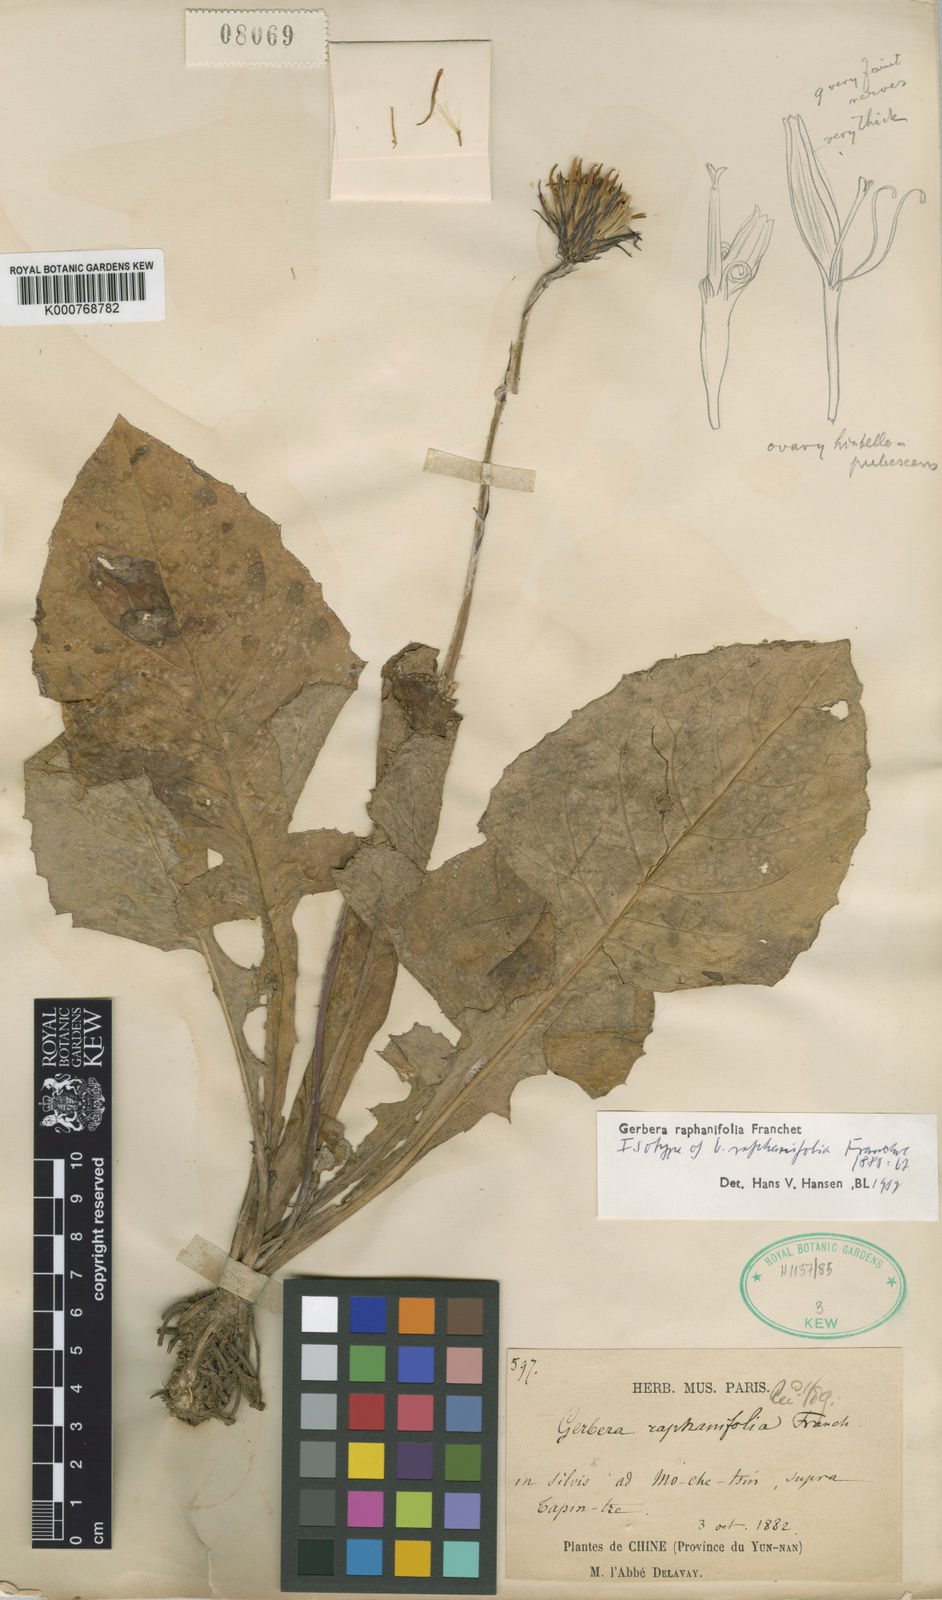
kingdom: Plantae
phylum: Tracheophyta
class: Magnoliopsida
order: Asterales
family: Asteraceae
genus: Oreoseris
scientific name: Oreoseris raphanifolia
